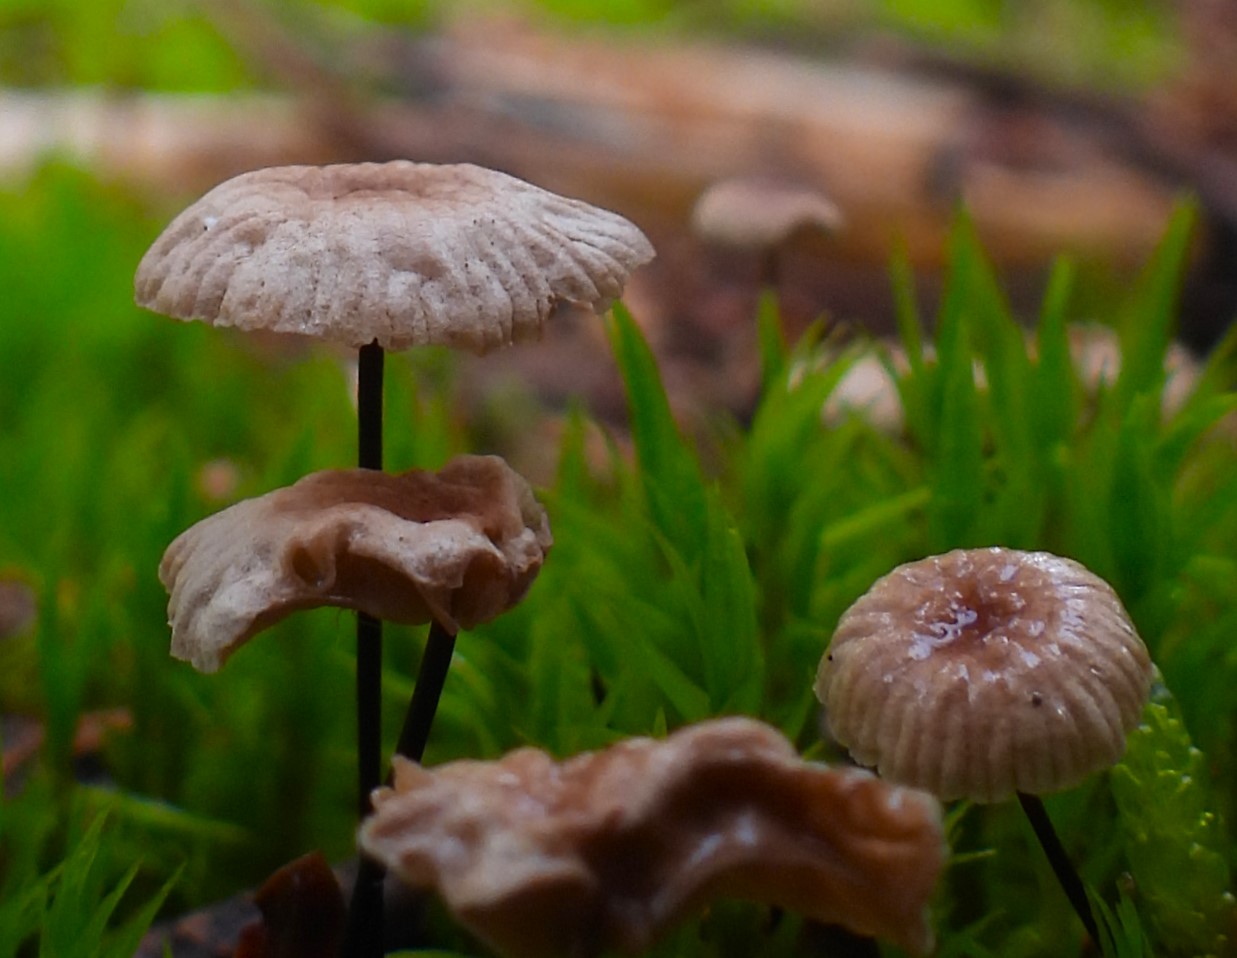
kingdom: Fungi
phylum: Basidiomycota
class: Agaricomycetes
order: Agaricales
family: Omphalotaceae
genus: Gymnopus
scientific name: Gymnopus androsaceus
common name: trådstokket fladhat
